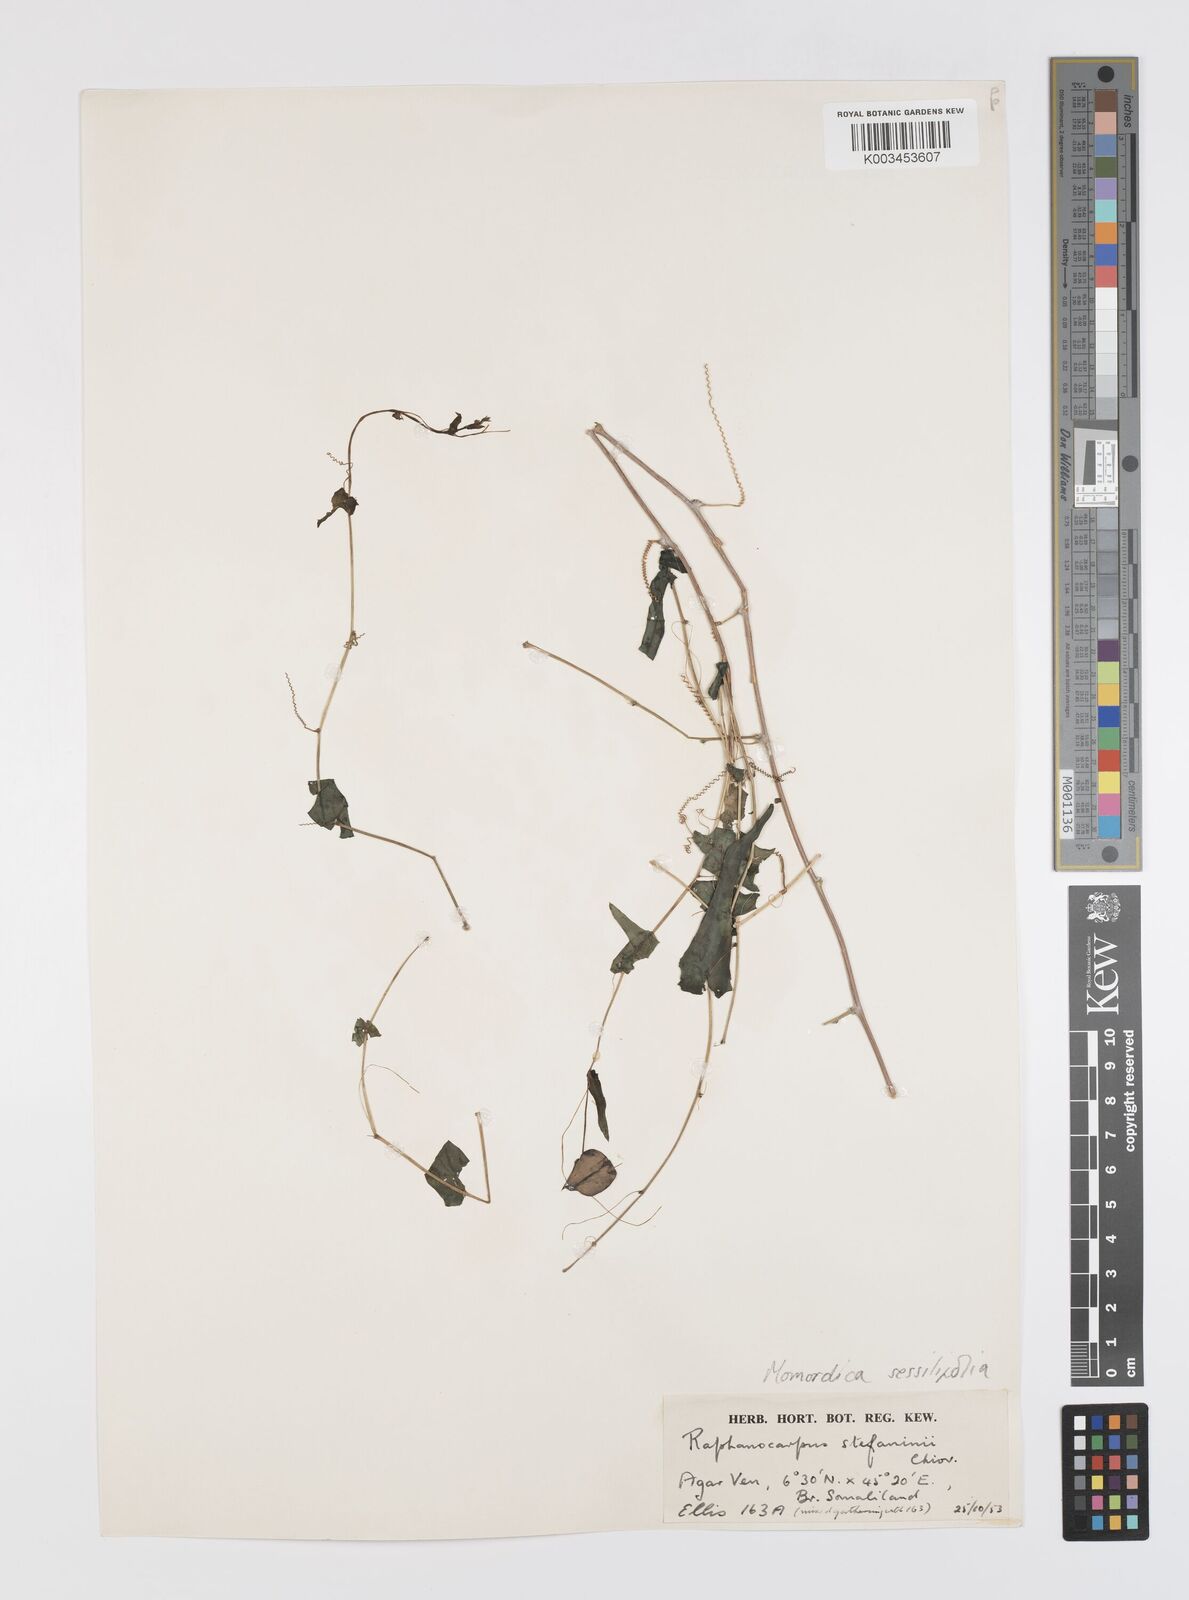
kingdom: Plantae
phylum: Tracheophyta
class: Magnoliopsida
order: Cucurbitales
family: Cucurbitaceae
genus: Momordica
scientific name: Momordica sessilifolia
